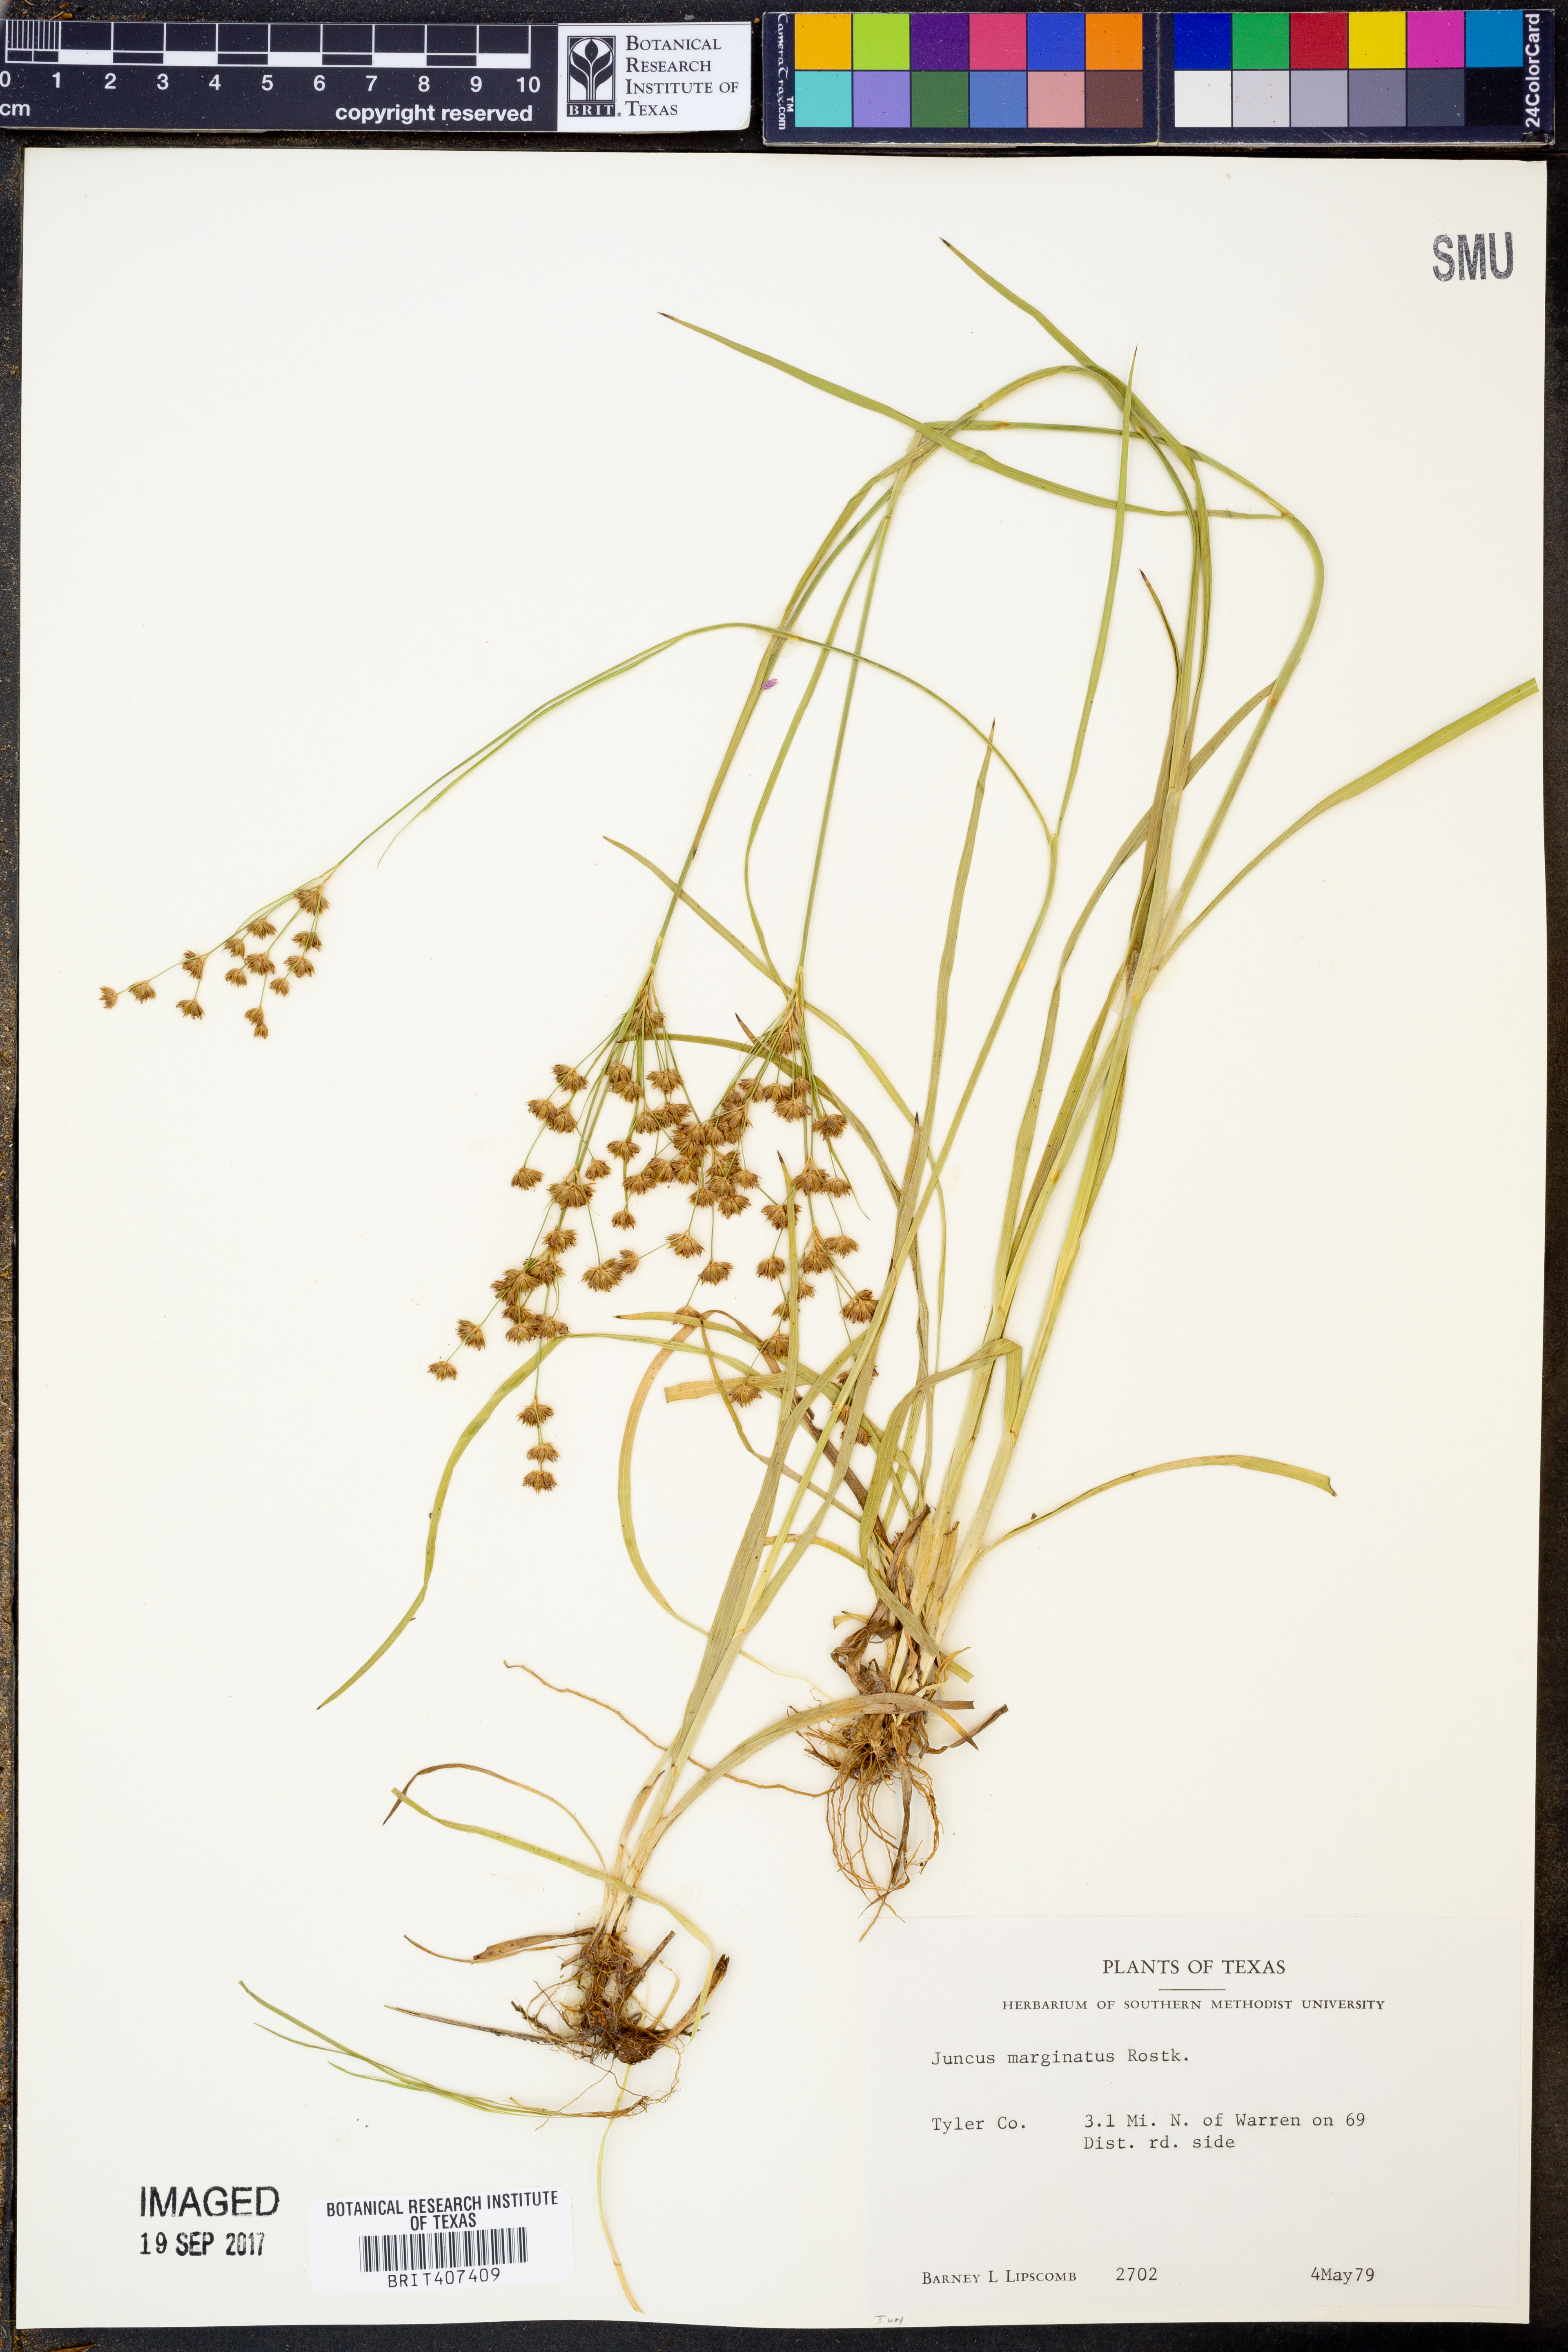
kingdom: Plantae
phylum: Tracheophyta
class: Liliopsida
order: Poales
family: Juncaceae
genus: Juncus
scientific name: Juncus marginatus
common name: Grass-leaf rush
